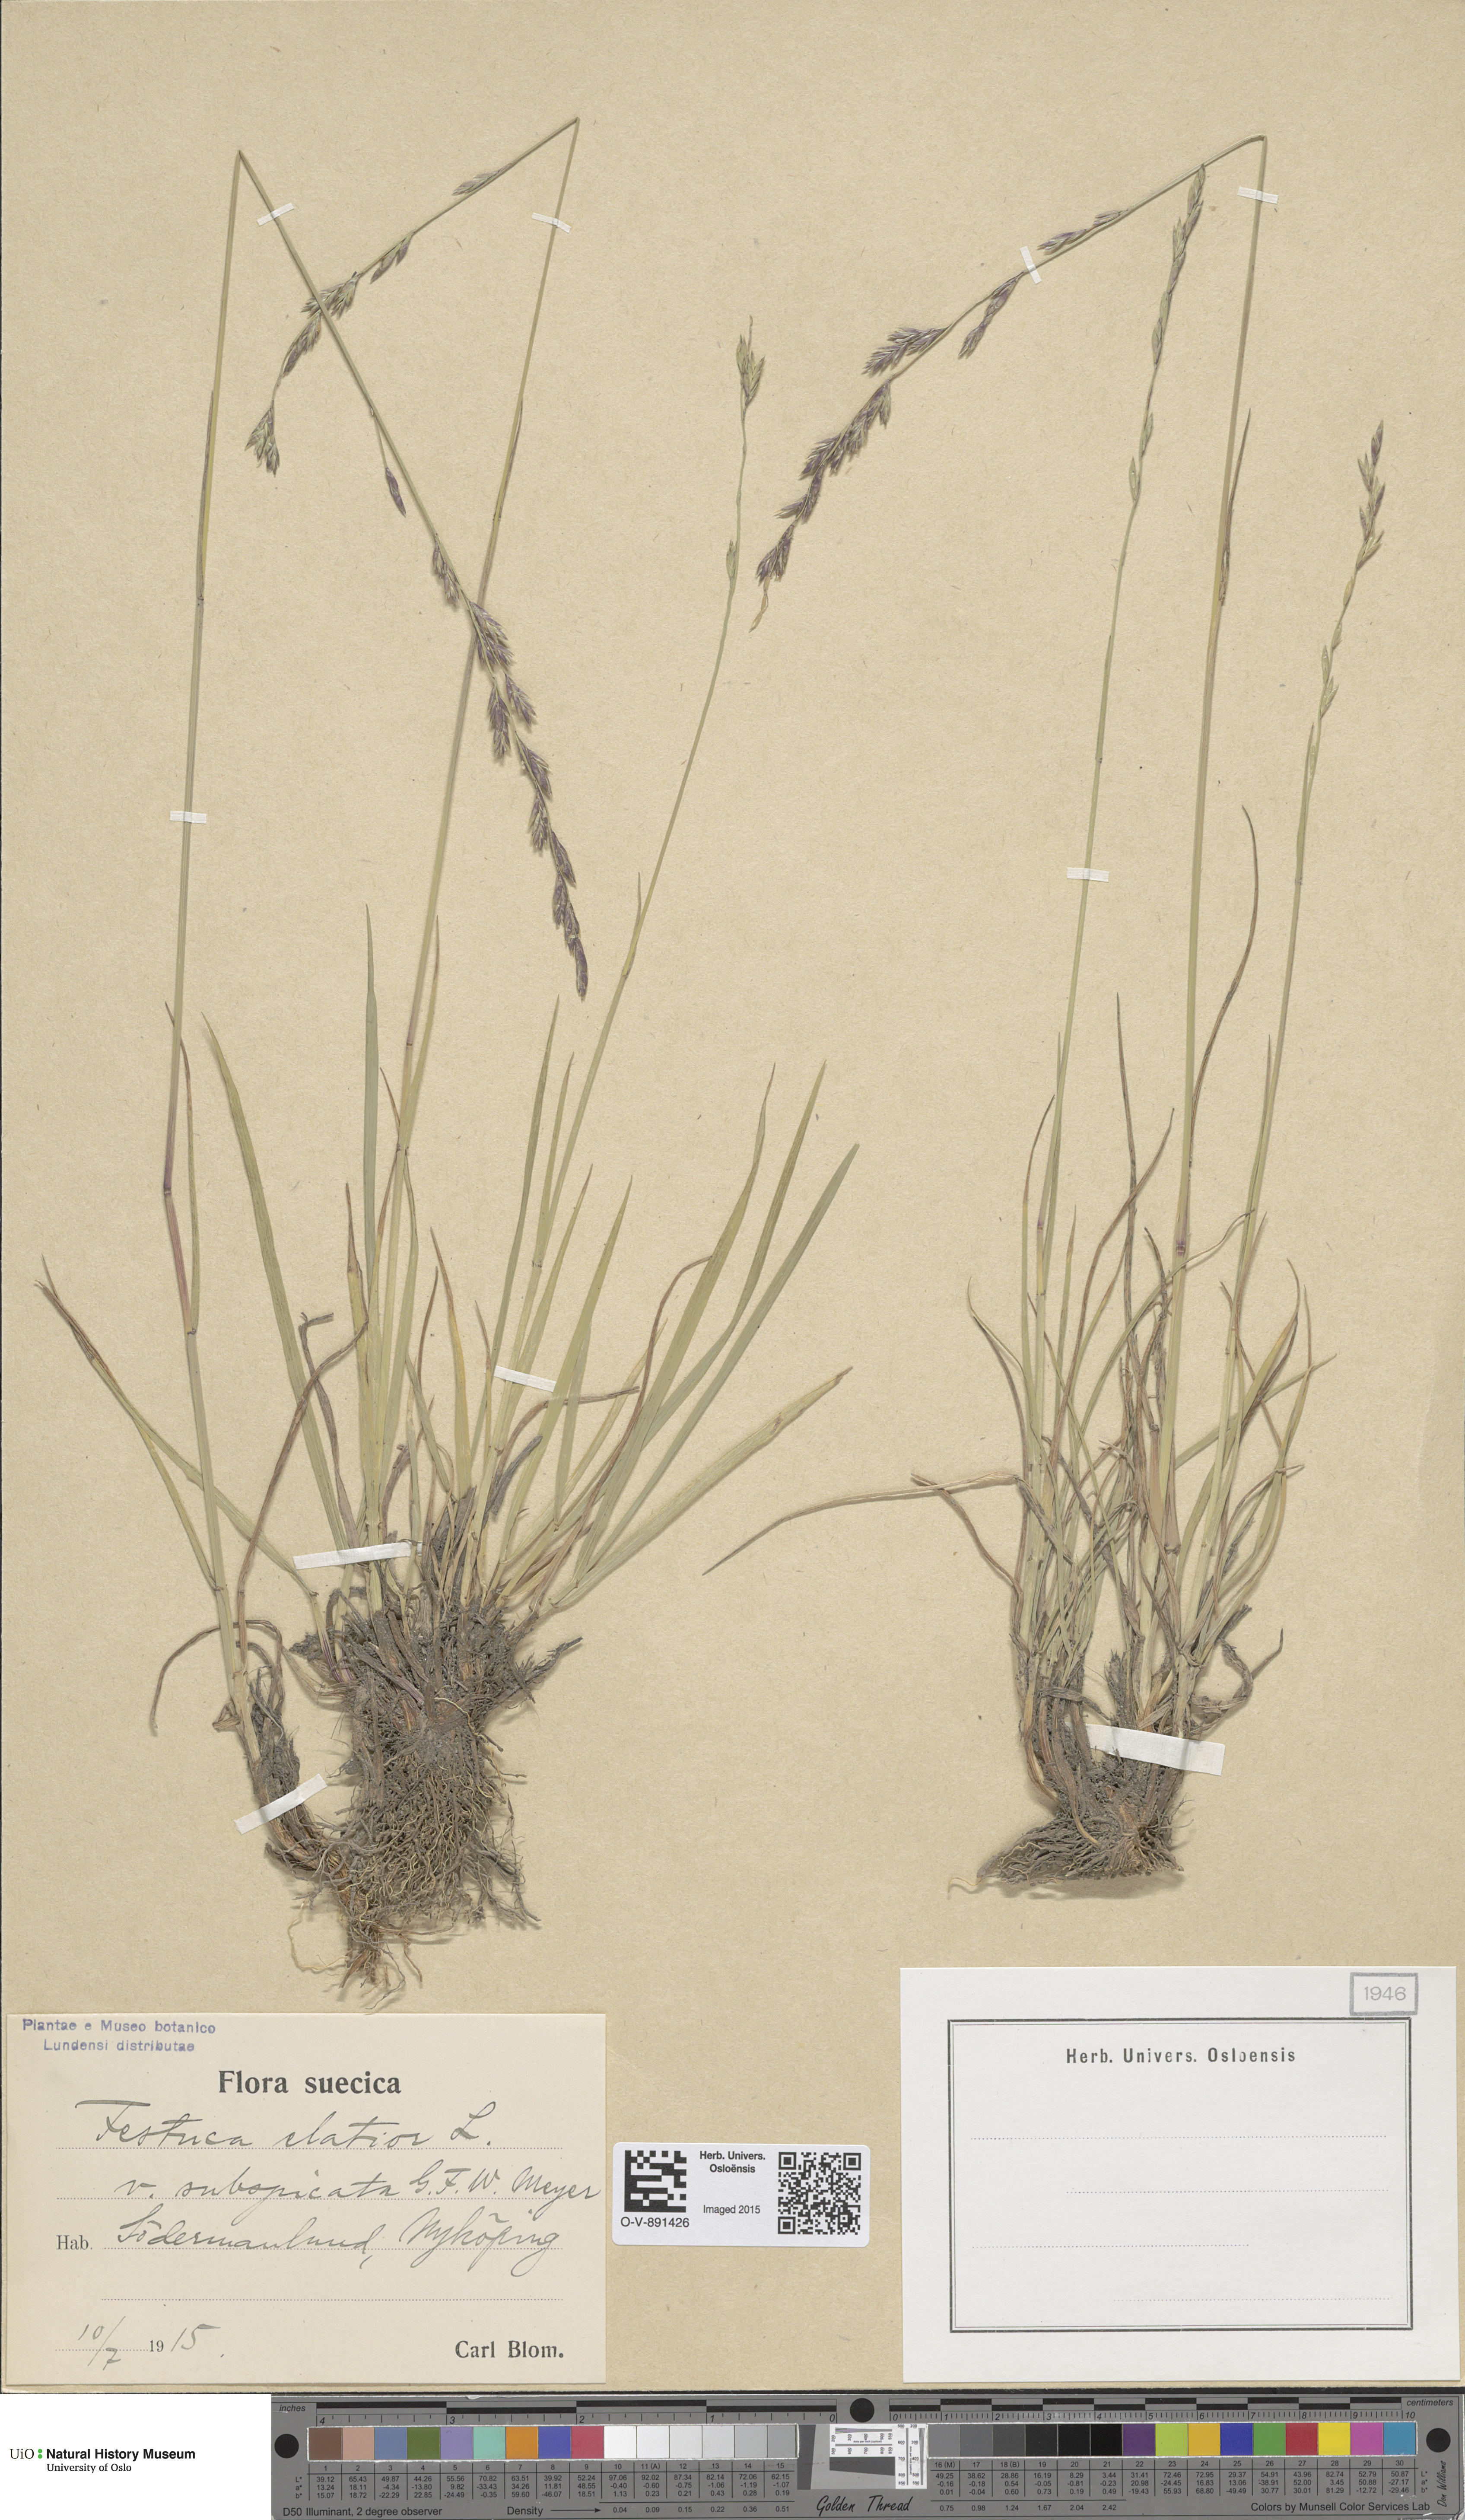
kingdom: Plantae
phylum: Tracheophyta
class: Liliopsida
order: Poales
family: Poaceae
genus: Lolium
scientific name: Lolium arundinaceum
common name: Reed fescue
